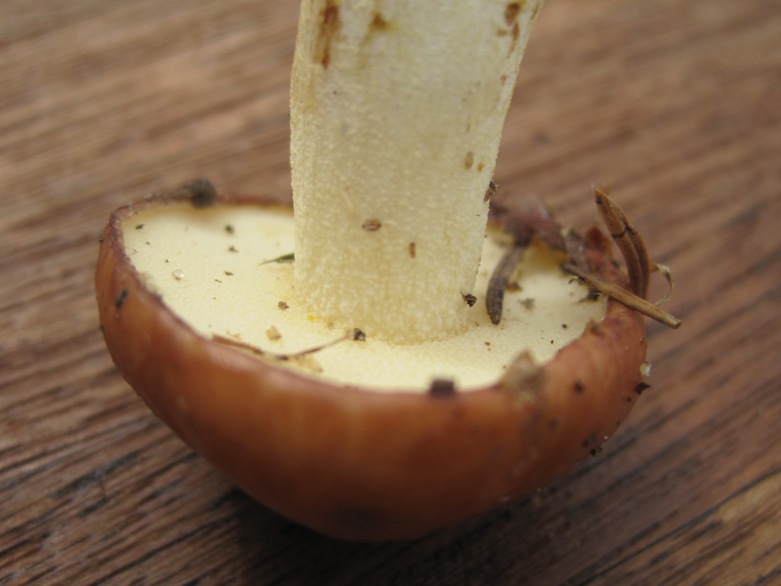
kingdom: Fungi
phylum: Basidiomycota
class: Agaricomycetes
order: Boletales
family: Suillaceae
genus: Suillus
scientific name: Suillus granulatus
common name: kornet slimrørhat
